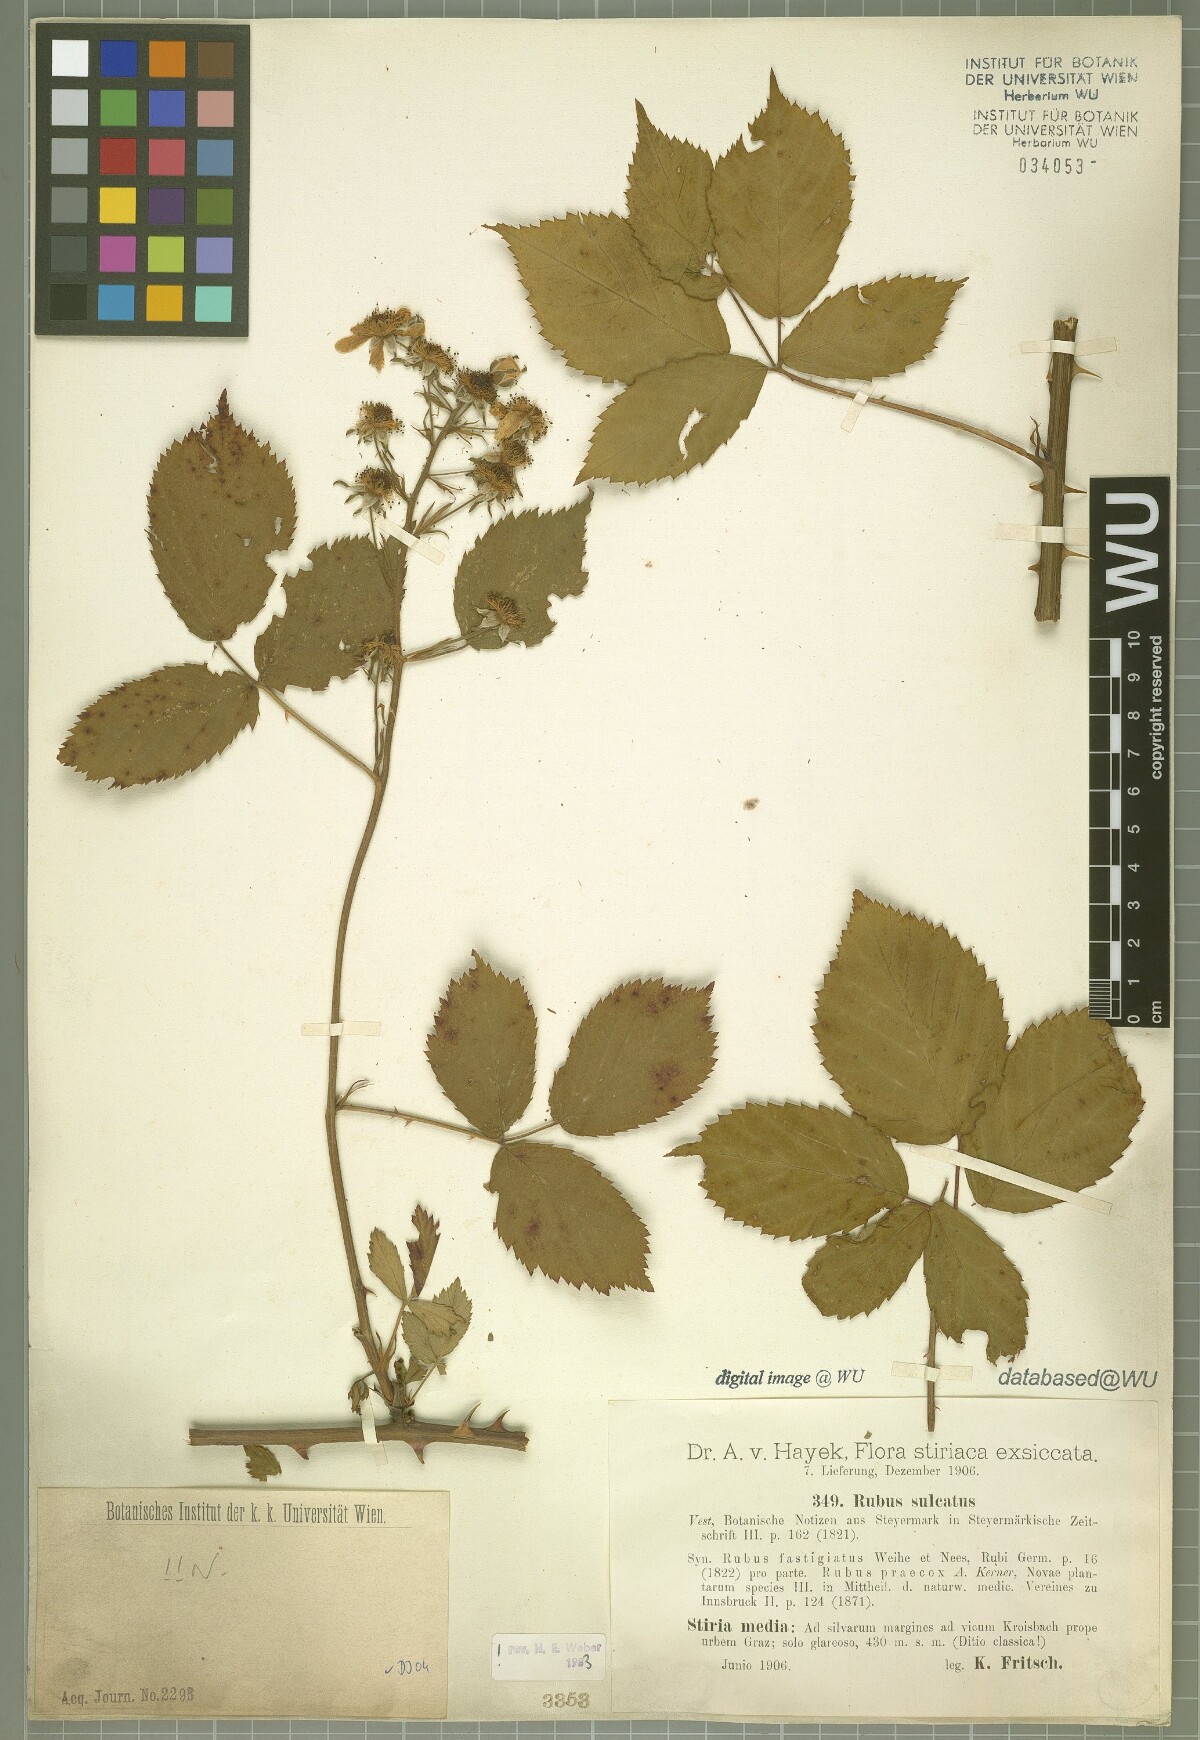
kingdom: Plantae
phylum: Tracheophyta
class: Magnoliopsida
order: Rosales
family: Rosaceae
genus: Rubus
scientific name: Rubus sulcatus
